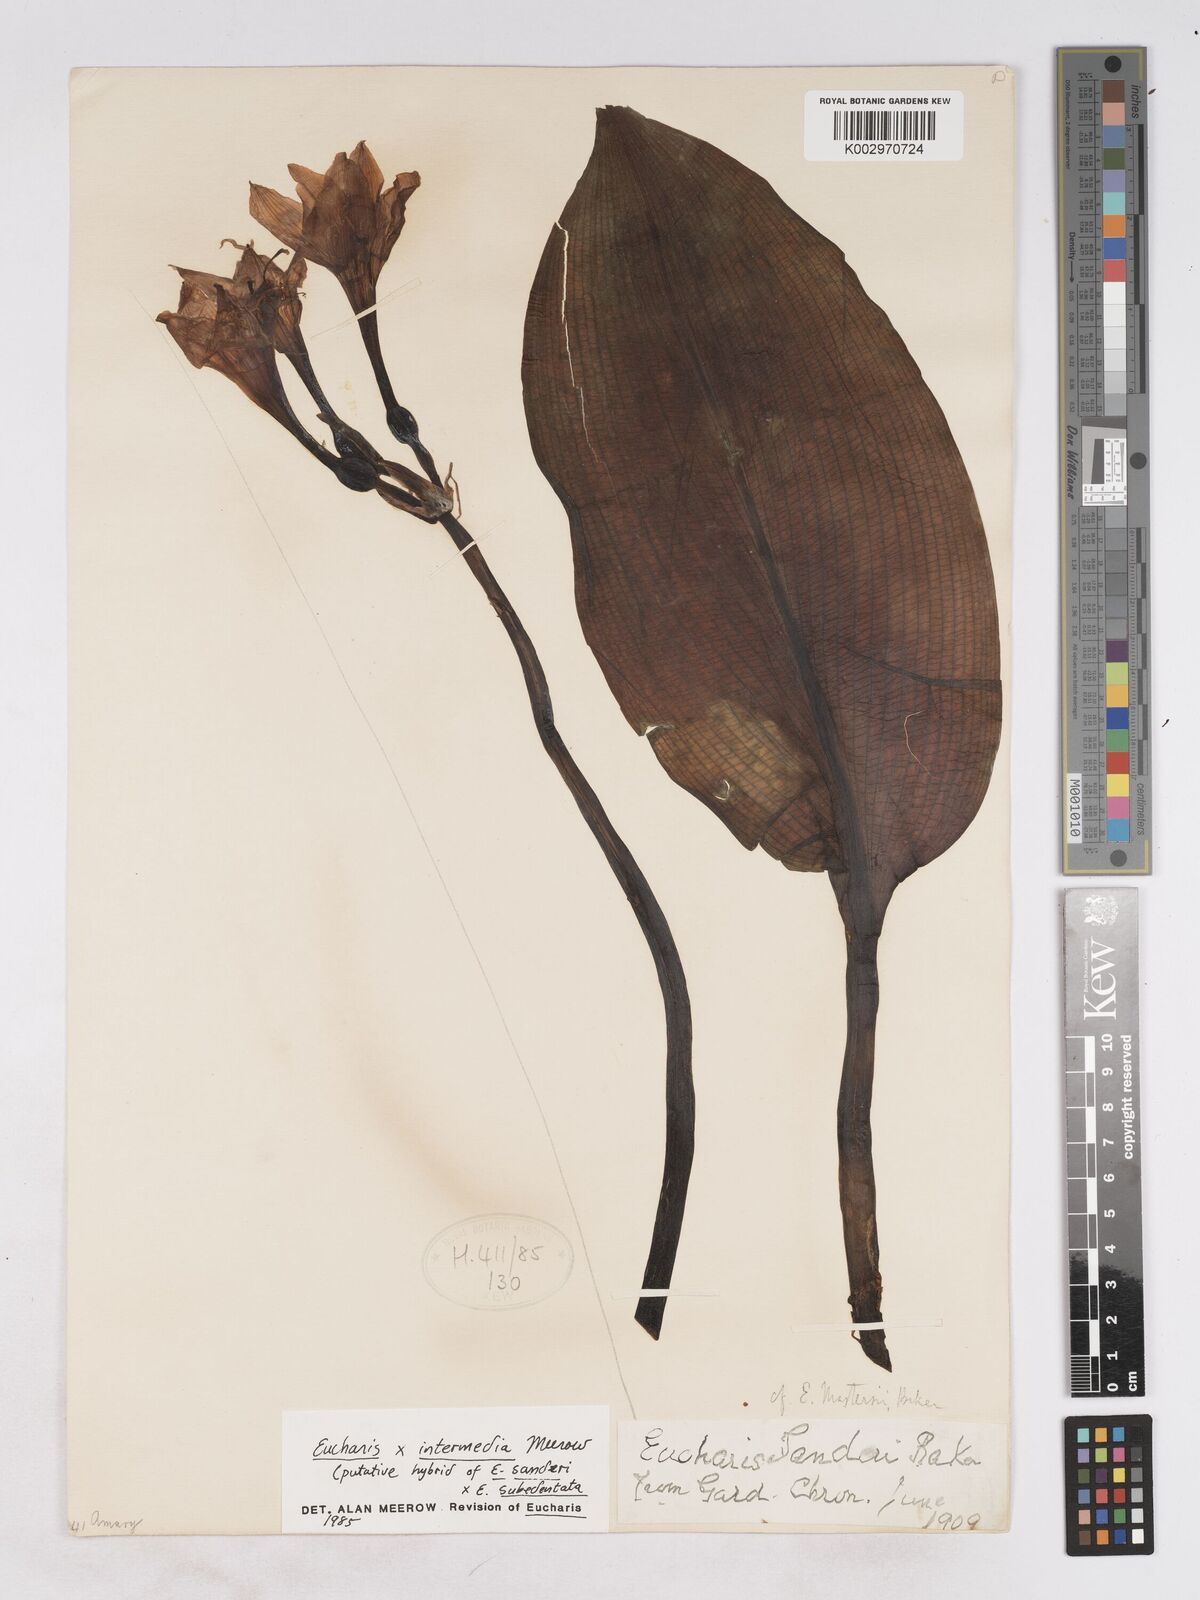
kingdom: Plantae
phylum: Tracheophyta
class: Liliopsida
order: Asparagales
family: Amaryllidaceae
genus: Calicharis
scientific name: Calicharis butcheri
